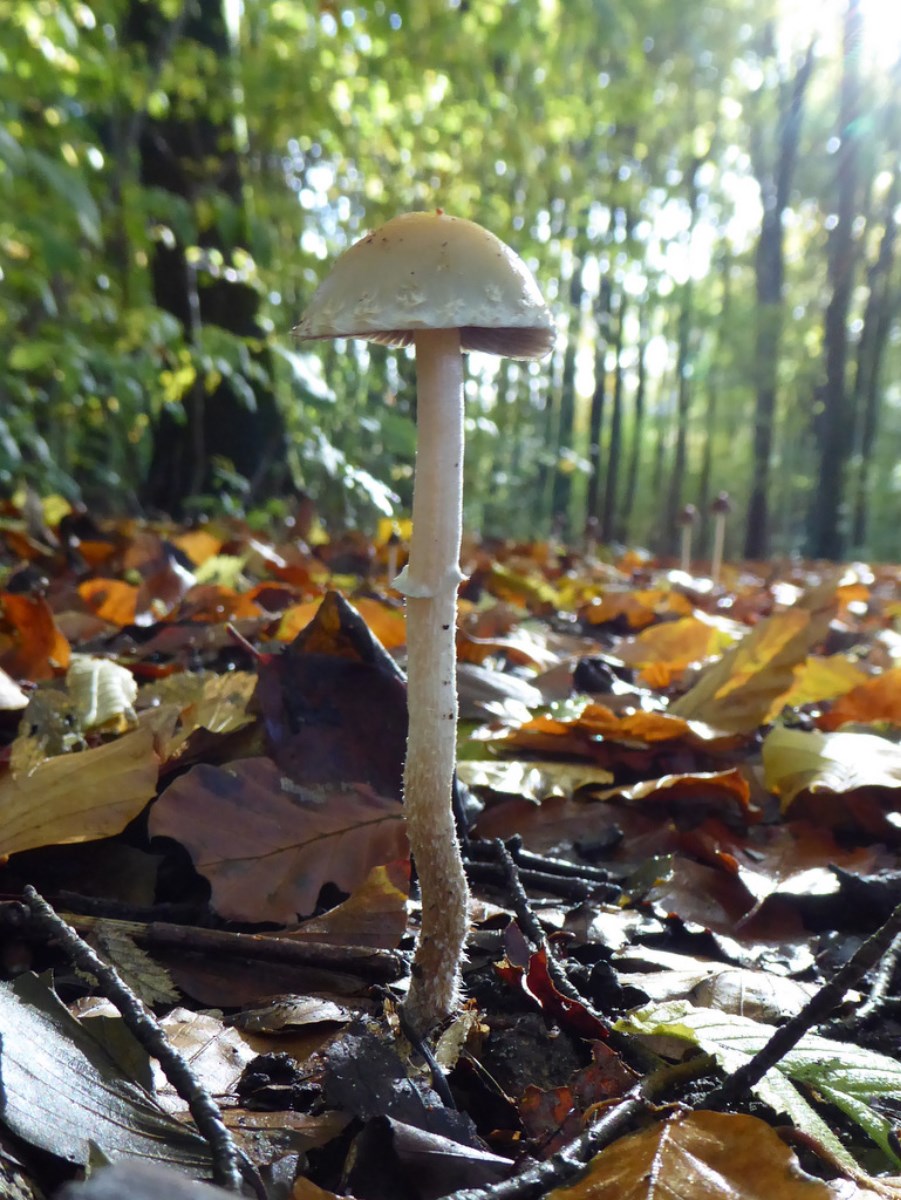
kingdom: Fungi
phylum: Basidiomycota
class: Agaricomycetes
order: Agaricales
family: Strophariaceae
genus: Leratiomyces
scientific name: Leratiomyces squamosus
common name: skællet bredblad
